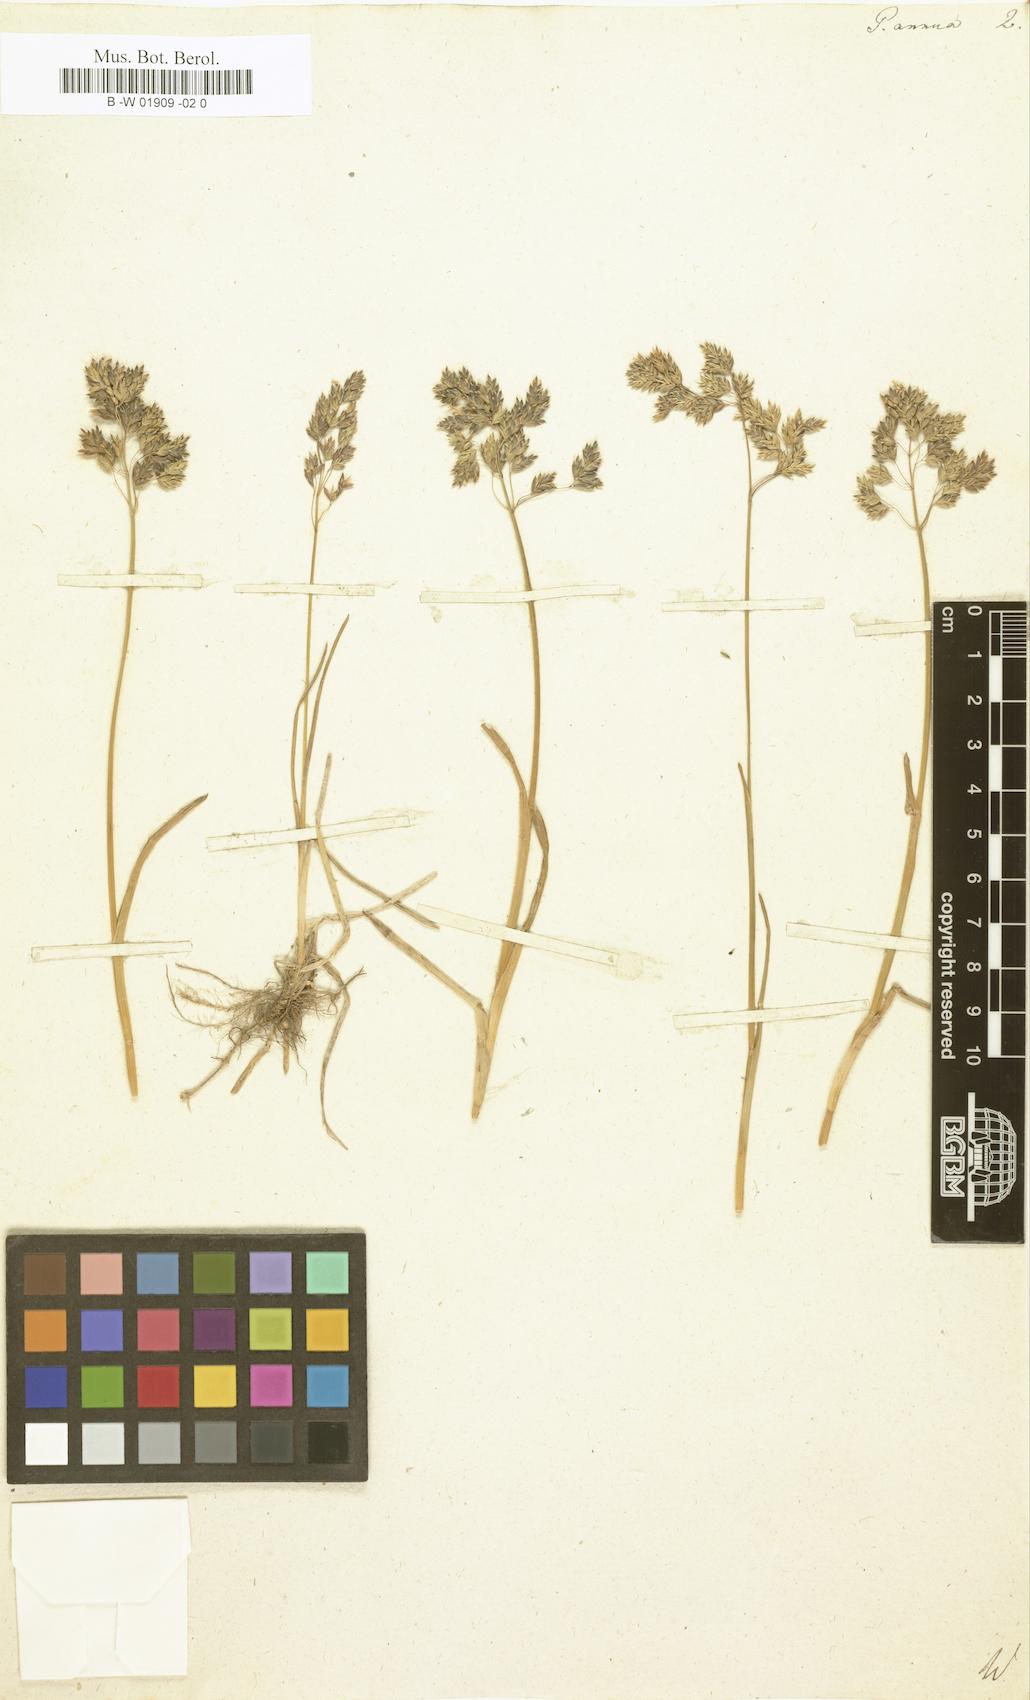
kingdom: Plantae
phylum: Tracheophyta
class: Liliopsida
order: Poales
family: Poaceae
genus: Poa
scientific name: Poa annua
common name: Annual bluegrass
